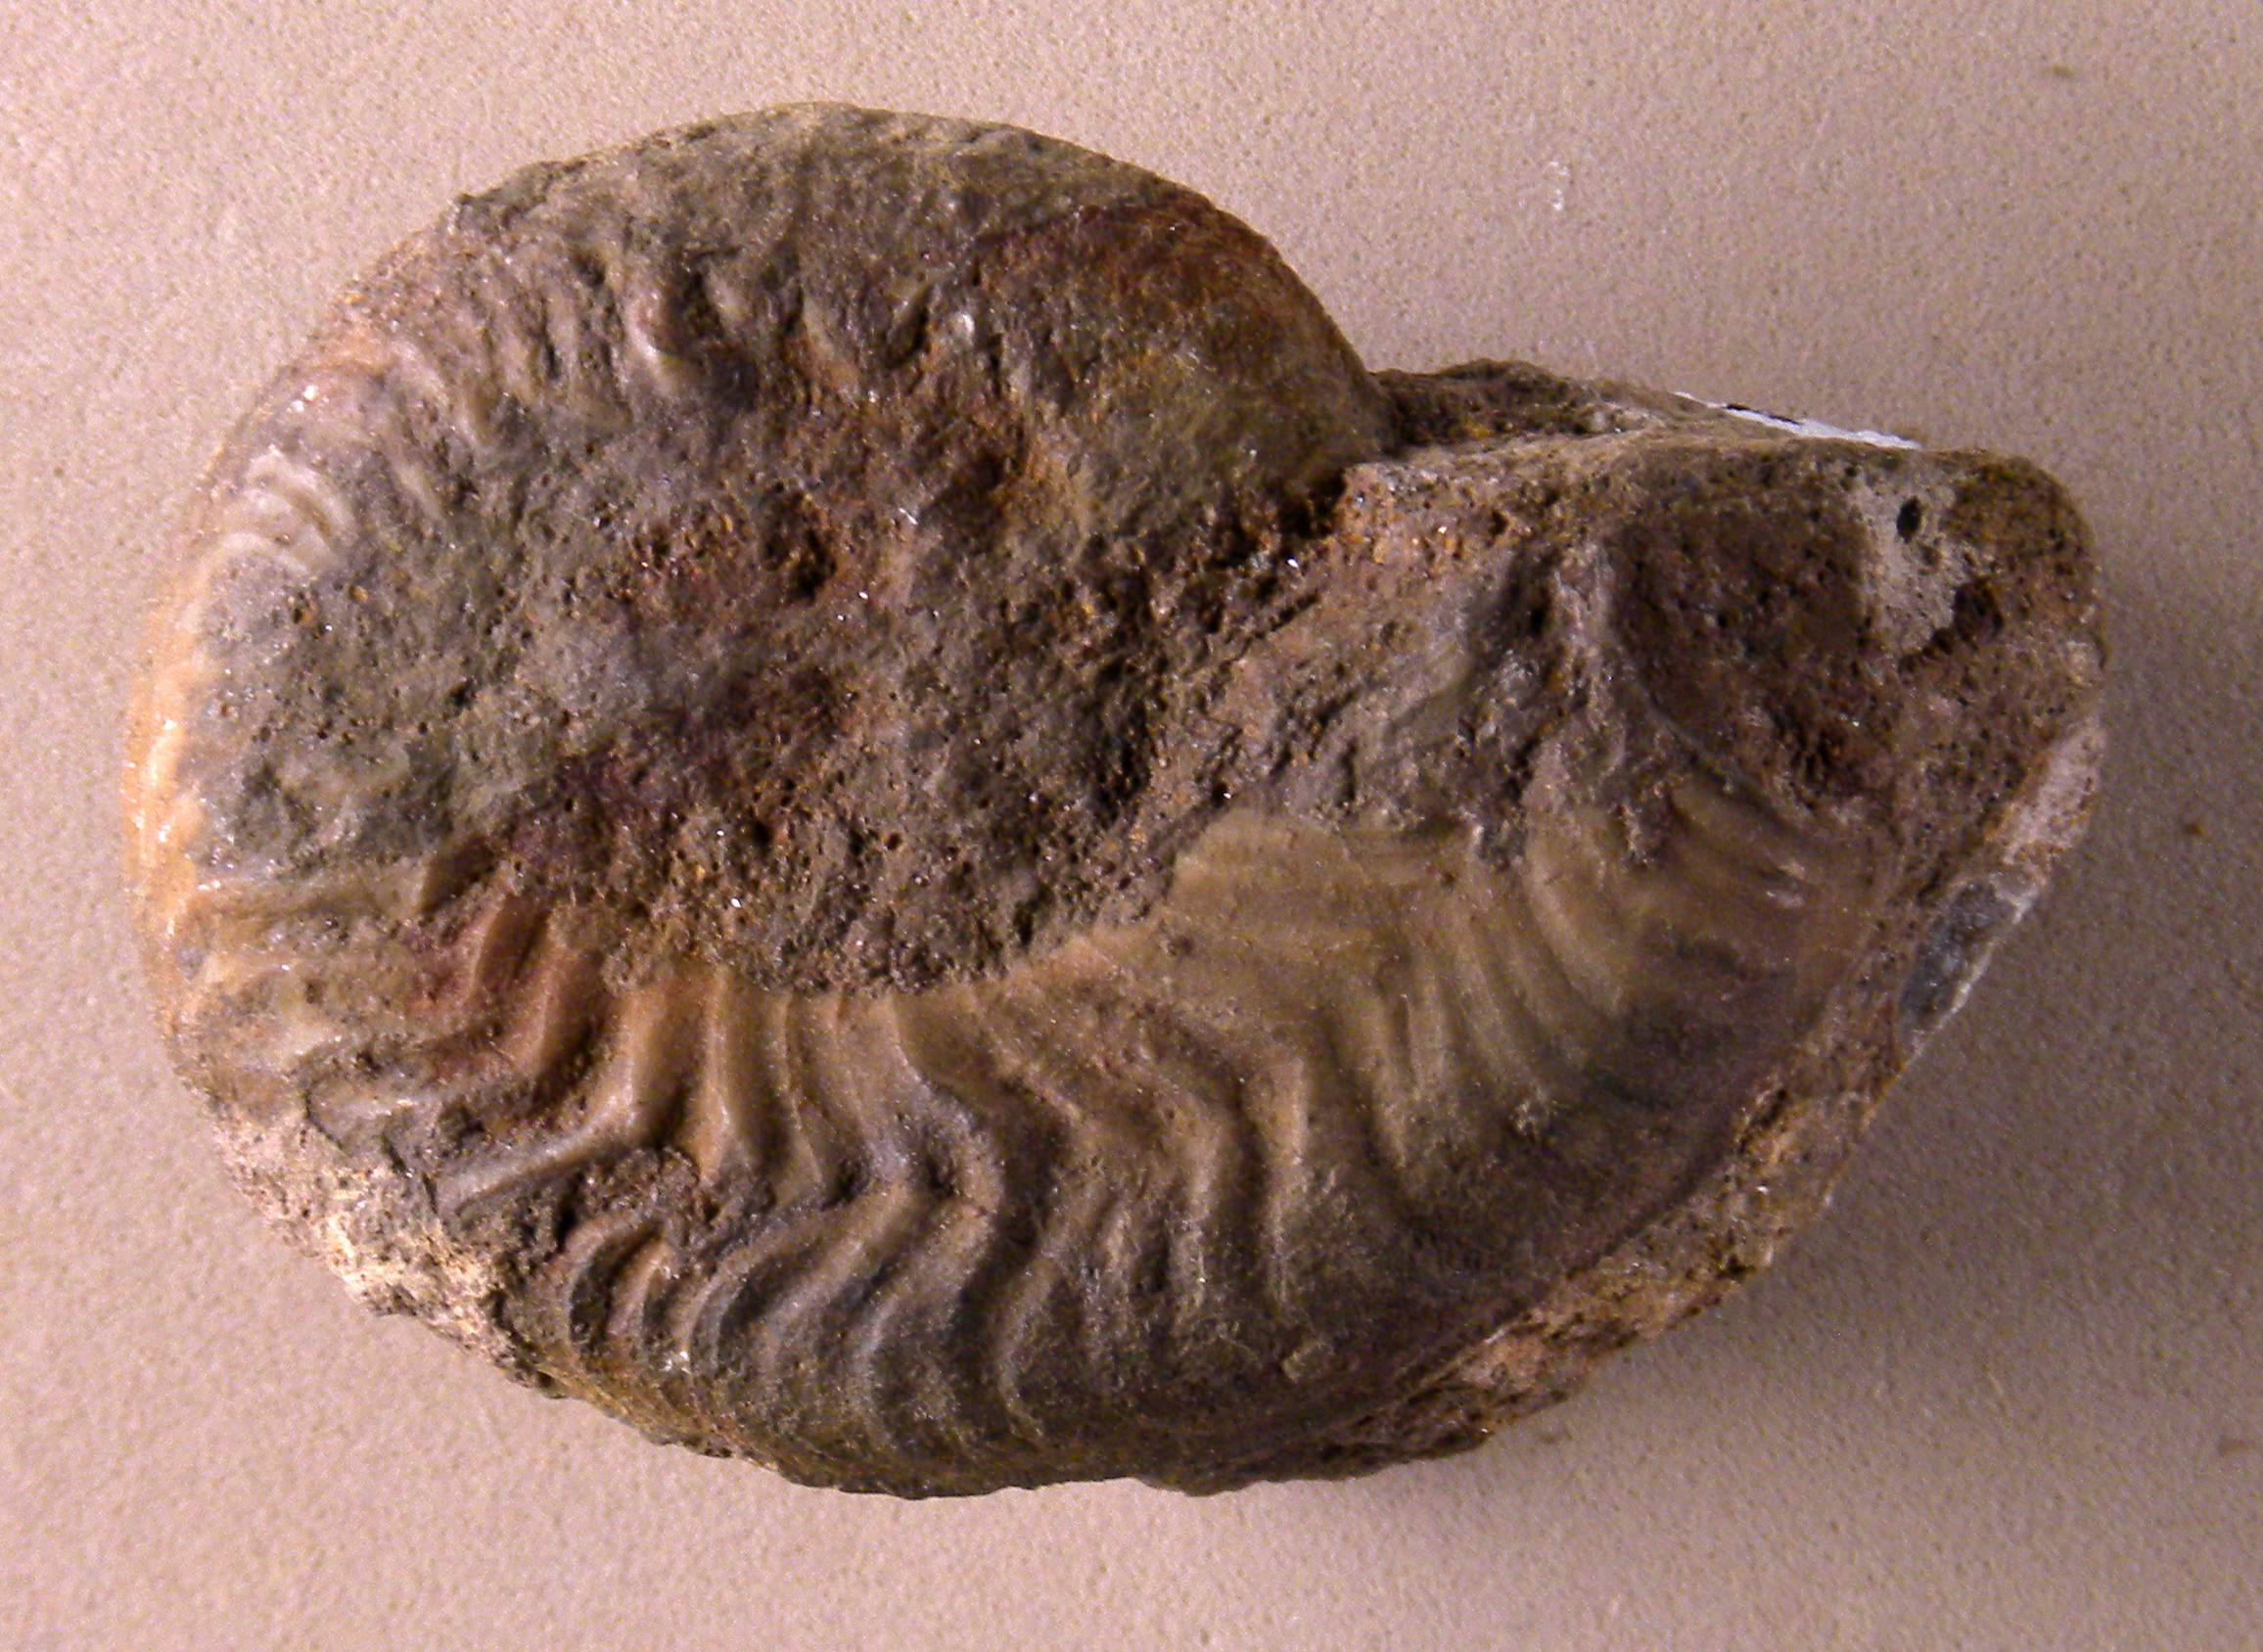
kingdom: Animalia
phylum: Mollusca
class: Cephalopoda
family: Graphoceratidae
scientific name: Graphoceratidae
